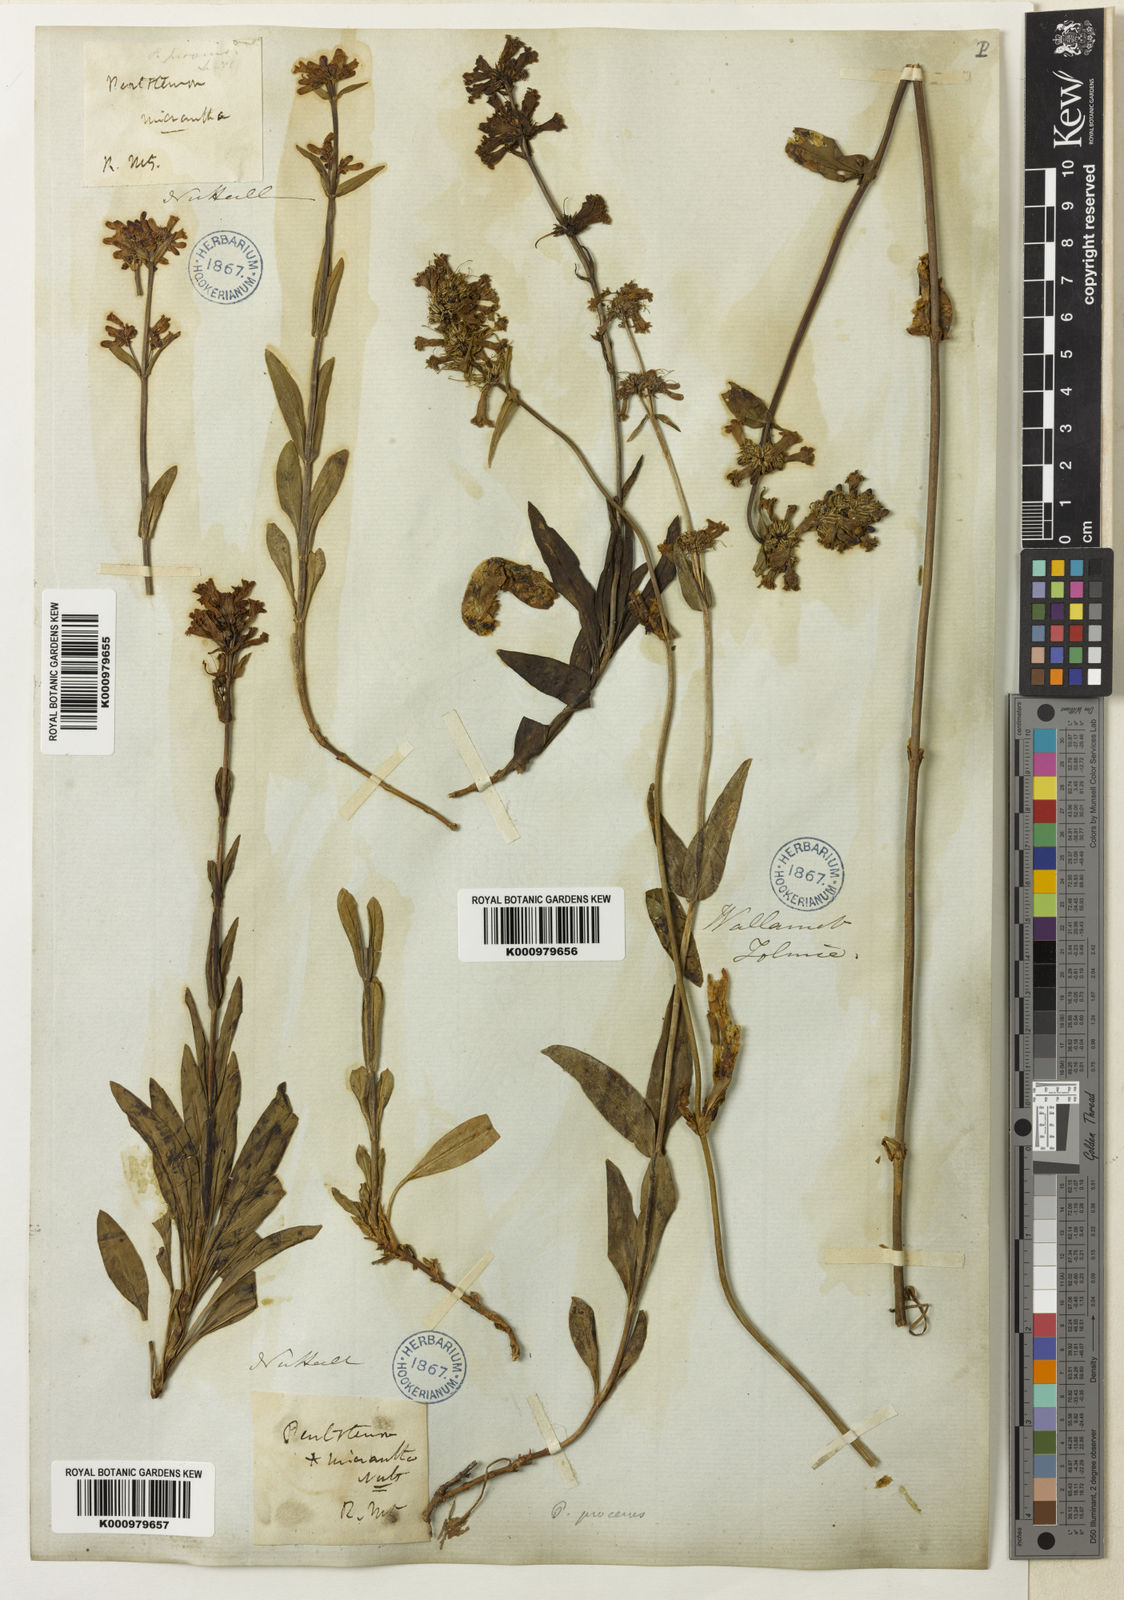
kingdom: Plantae
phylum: Tracheophyta
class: Magnoliopsida
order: Lamiales
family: Plantaginaceae
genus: Penstemon
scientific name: Penstemon procerus
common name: Small-flower penstemon
